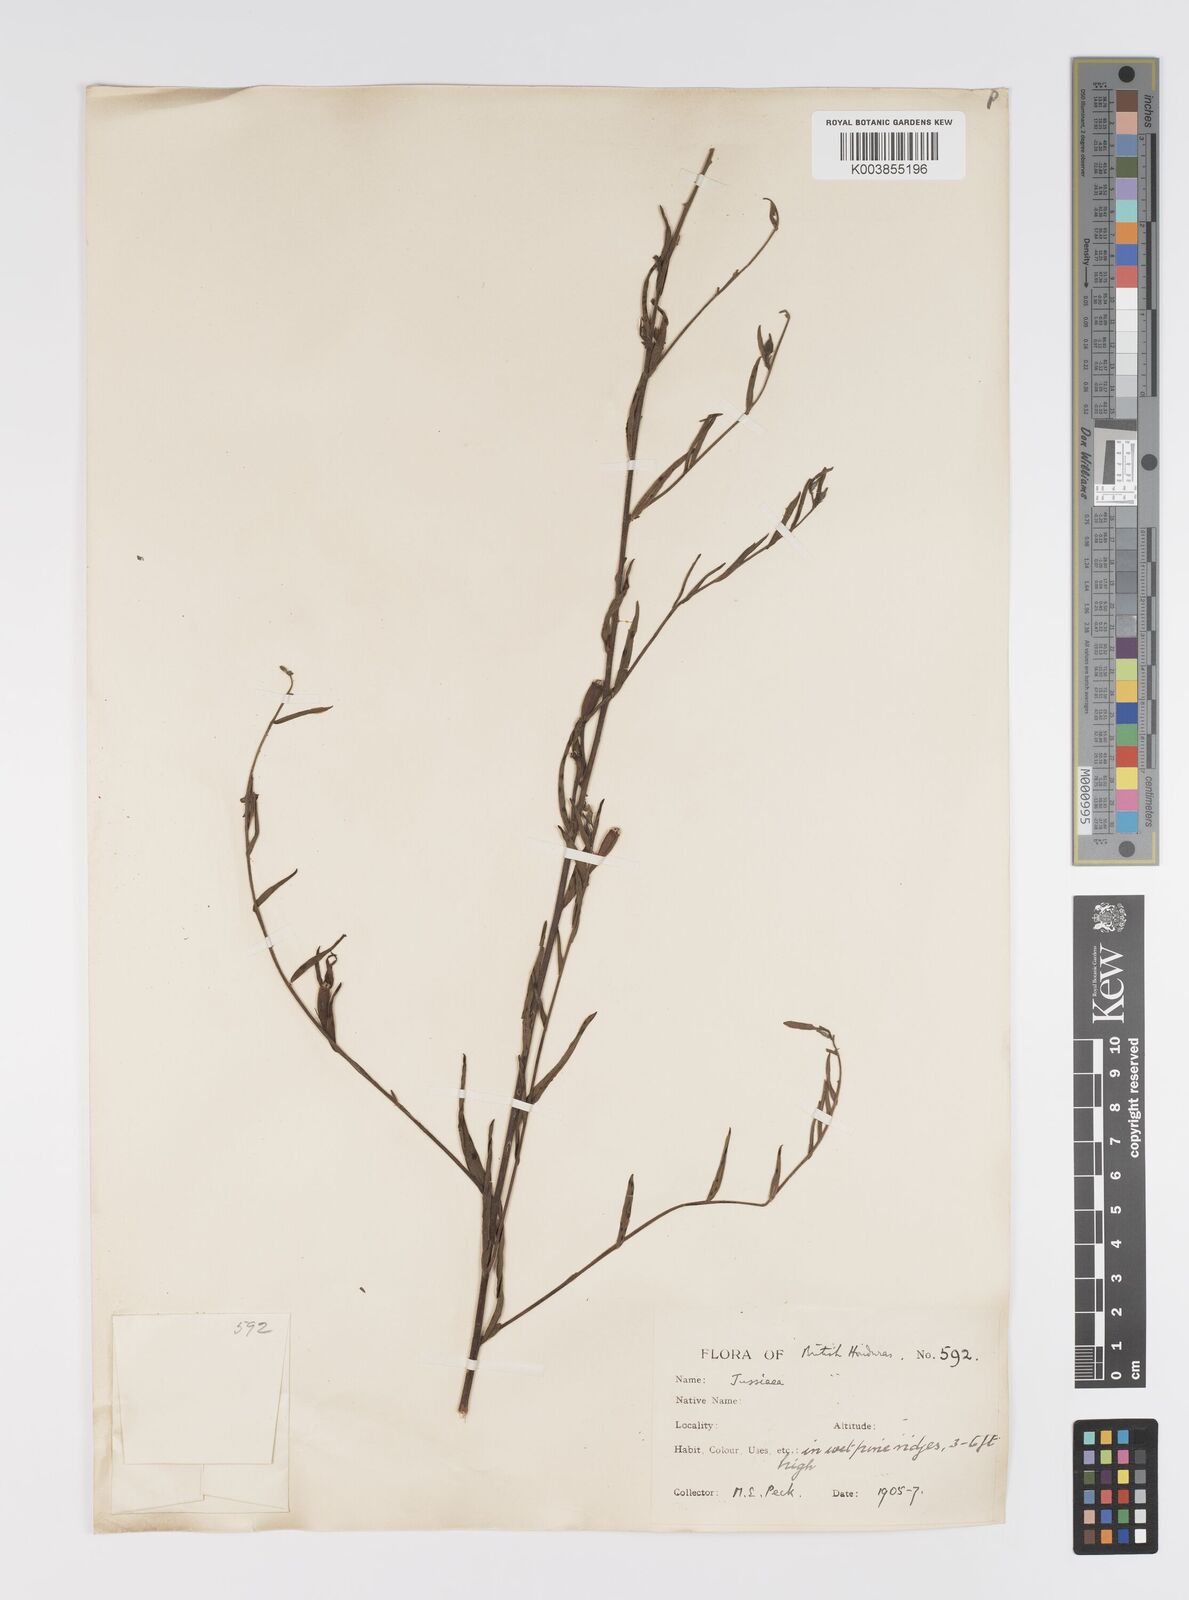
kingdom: Plantae
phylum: Tracheophyta
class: Magnoliopsida
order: Myrtales
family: Onagraceae
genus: Ludwigia
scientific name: Ludwigia
